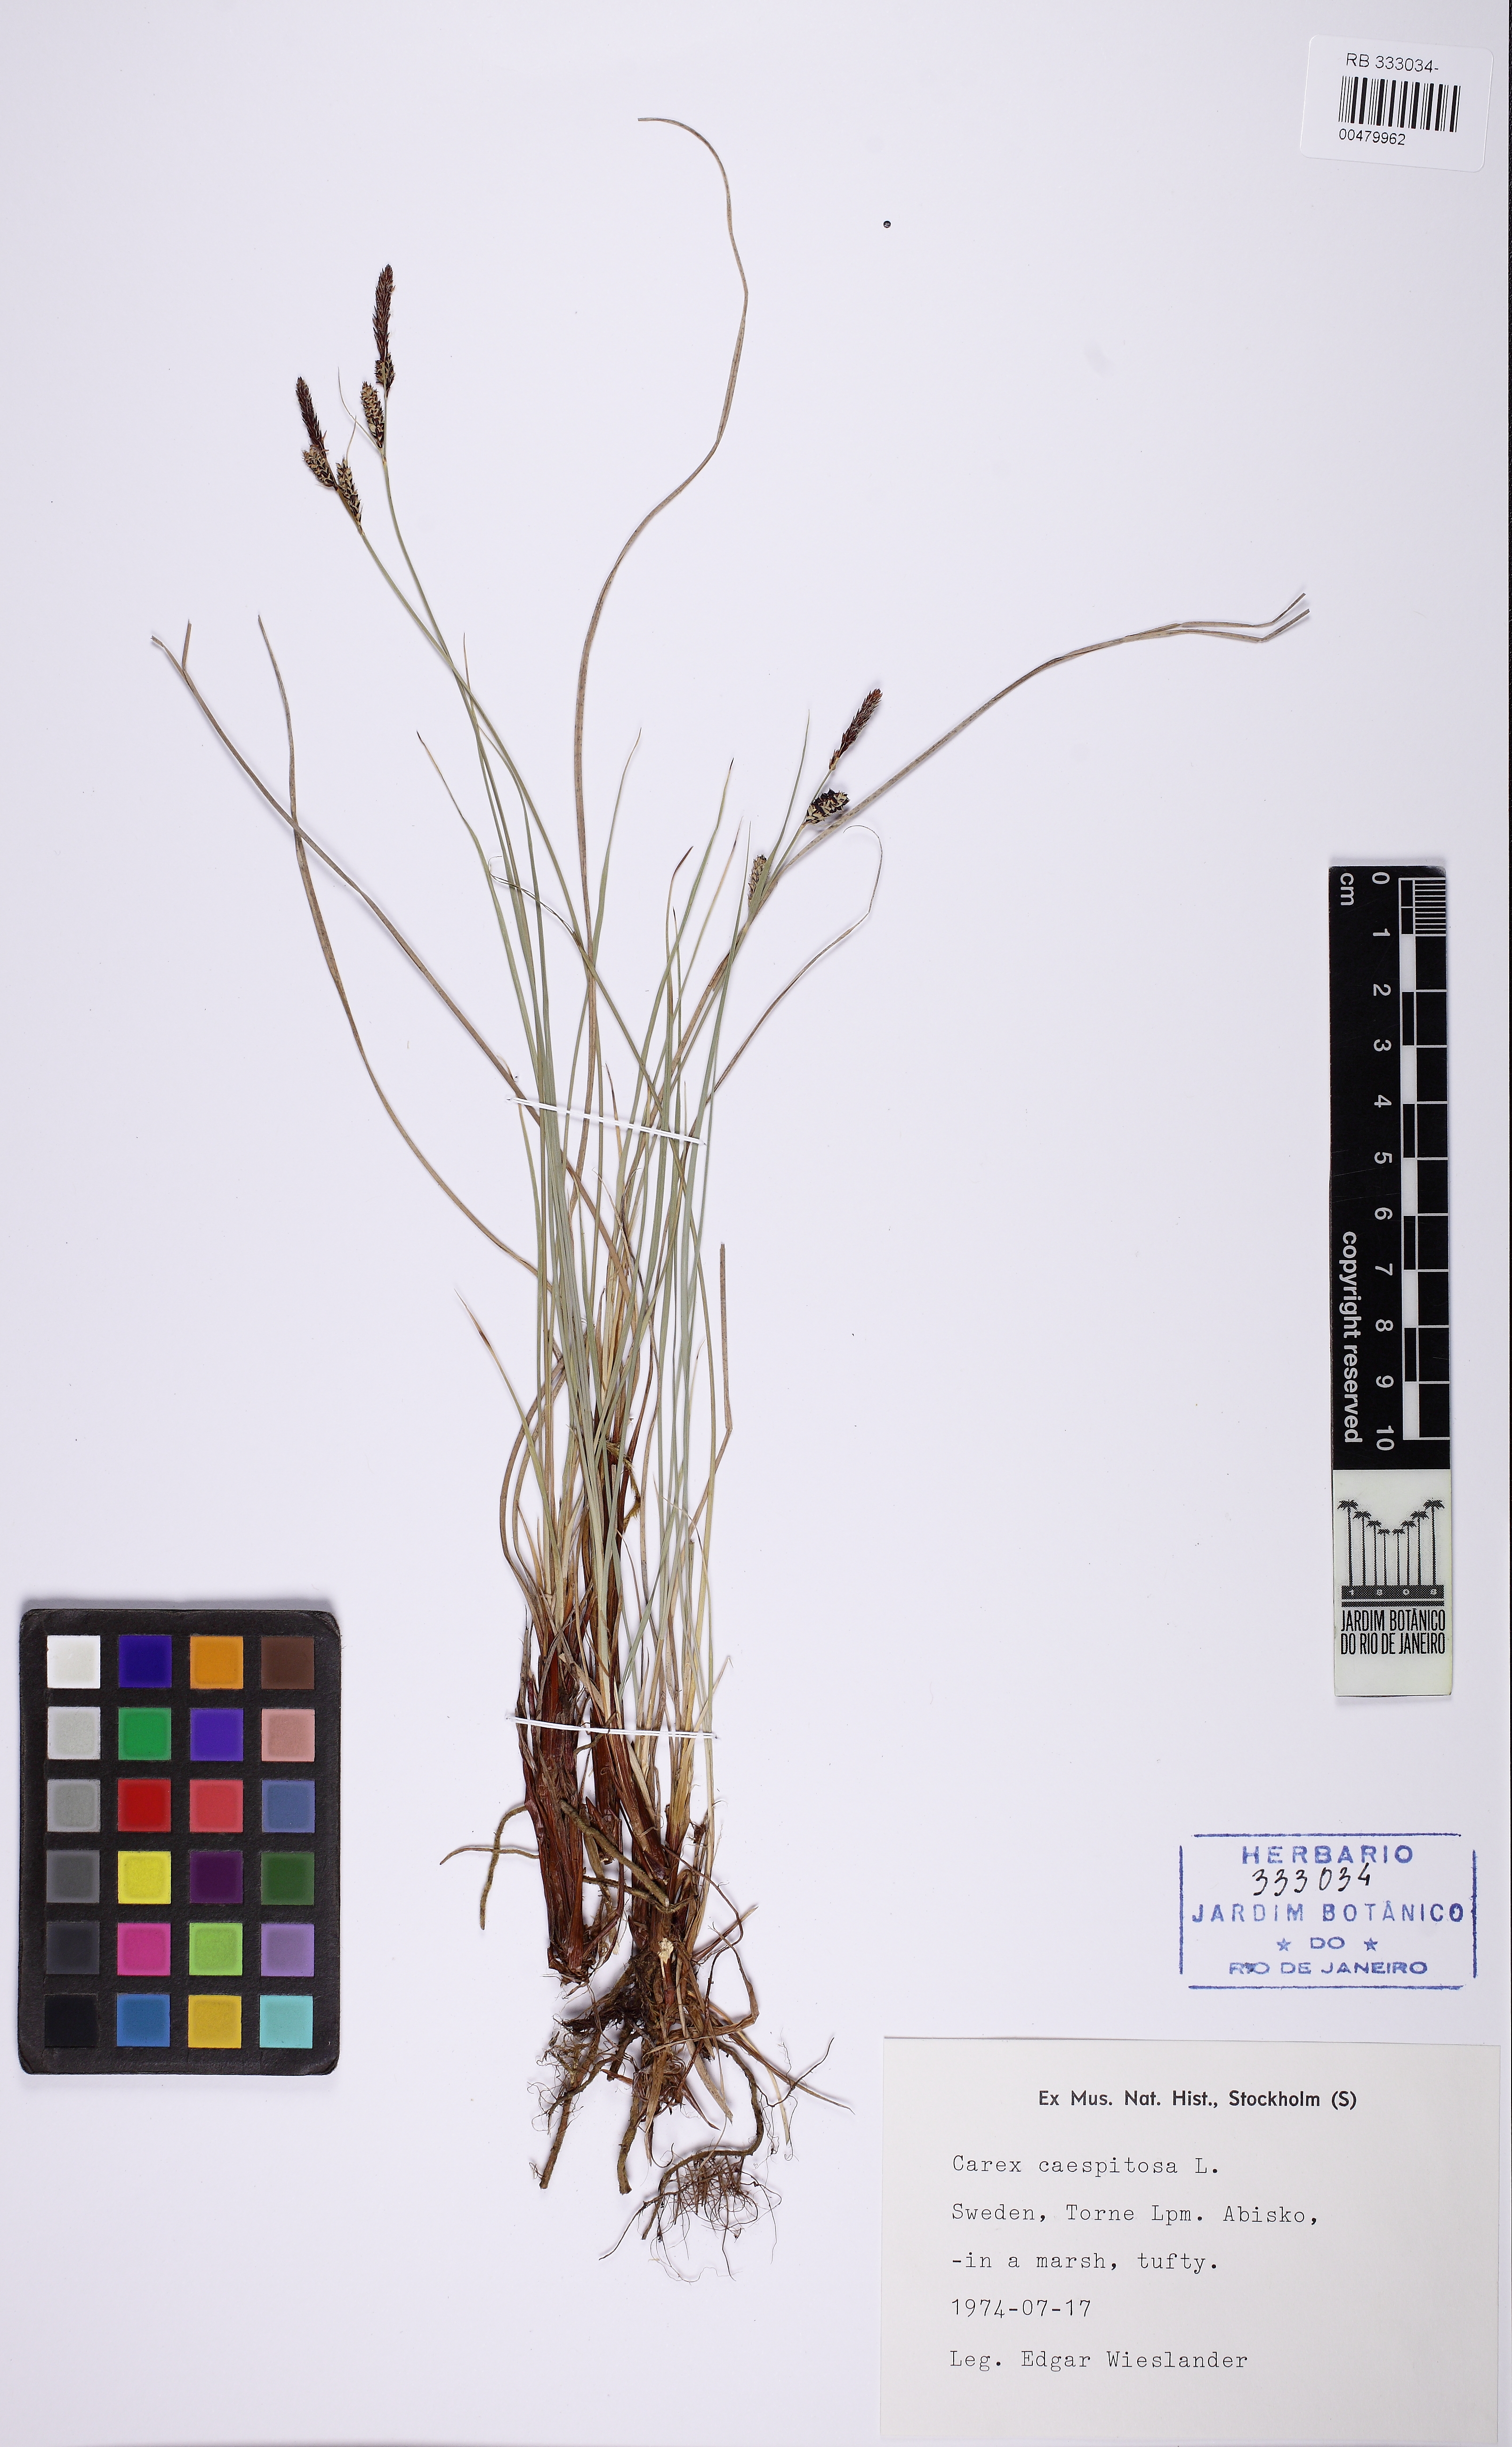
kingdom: Plantae
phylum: Tracheophyta
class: Liliopsida
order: Poales
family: Cyperaceae
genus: Carex
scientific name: Carex caespitosa
